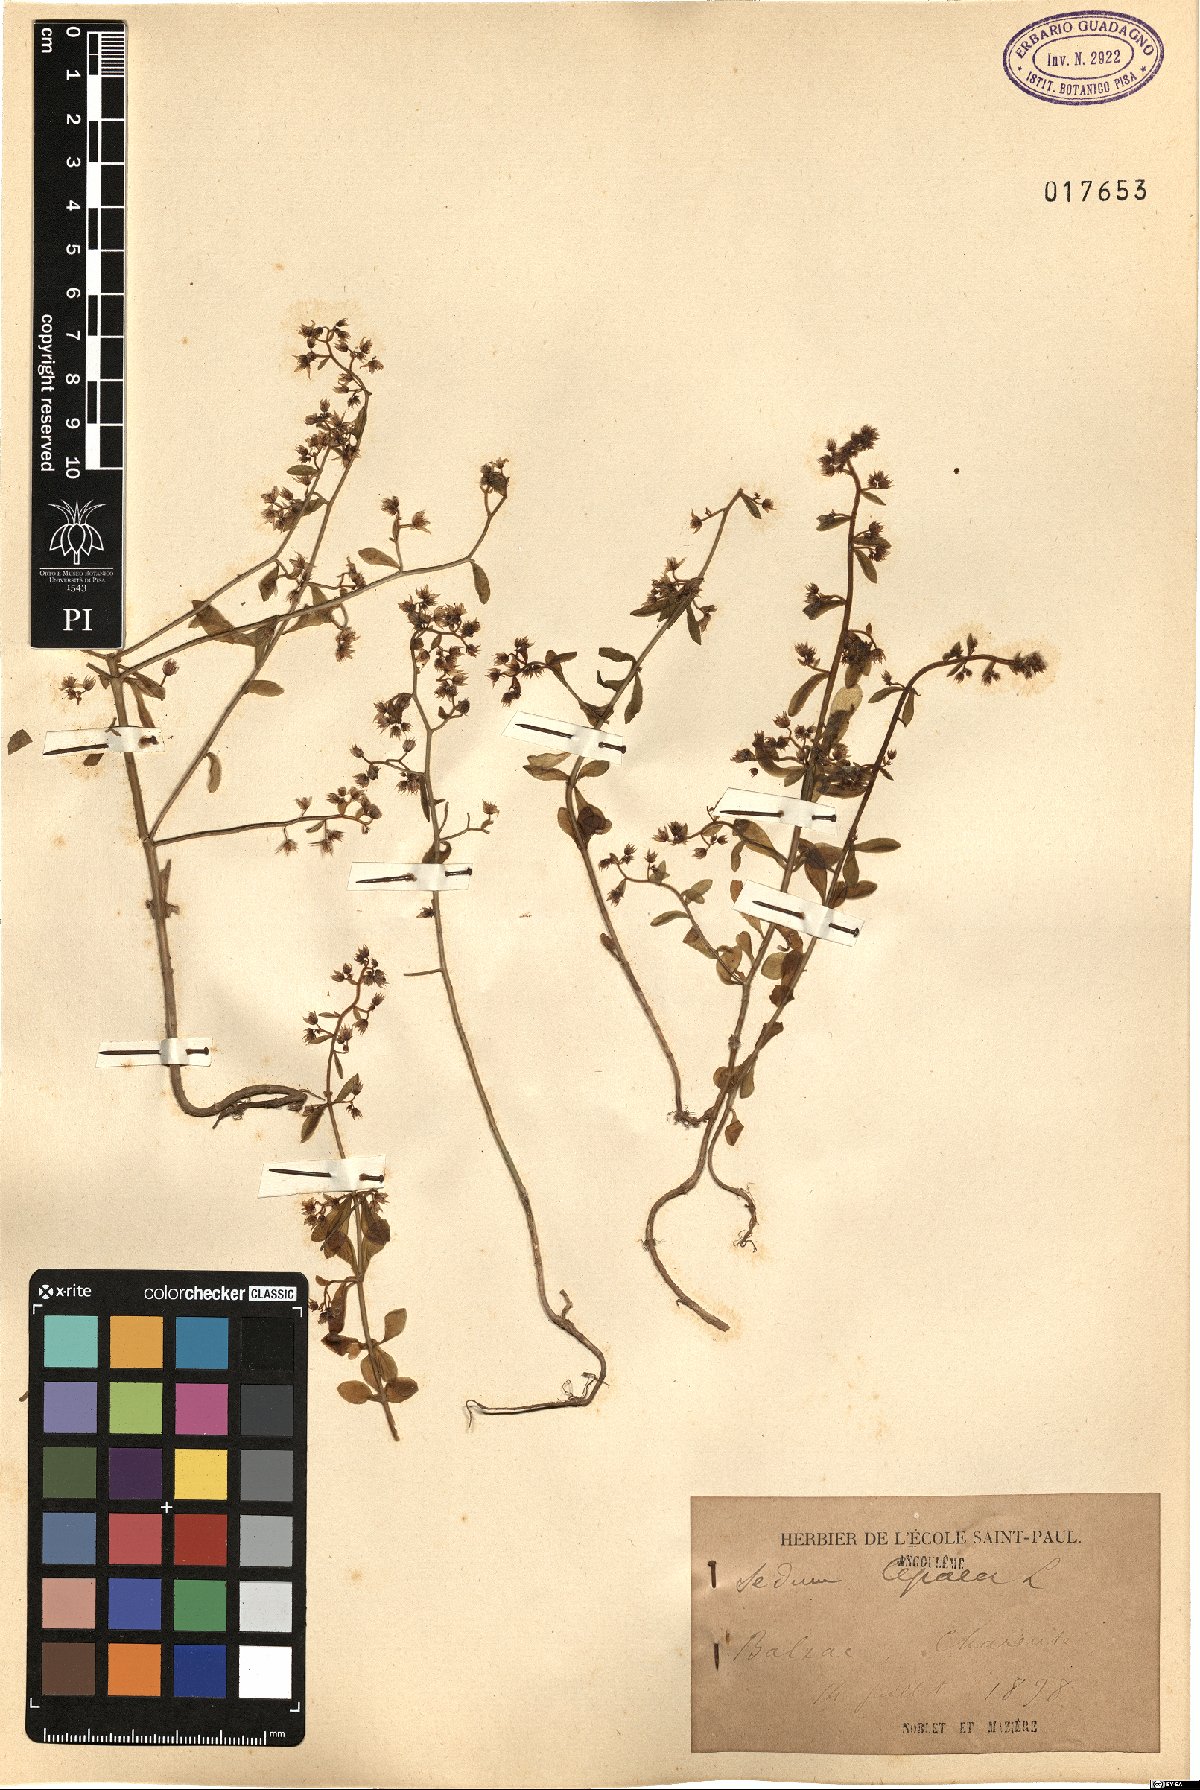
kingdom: Plantae
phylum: Tracheophyta
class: Magnoliopsida
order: Saxifragales
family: Crassulaceae
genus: Sedum
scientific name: Sedum cepaea
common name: Pink stonecrop
